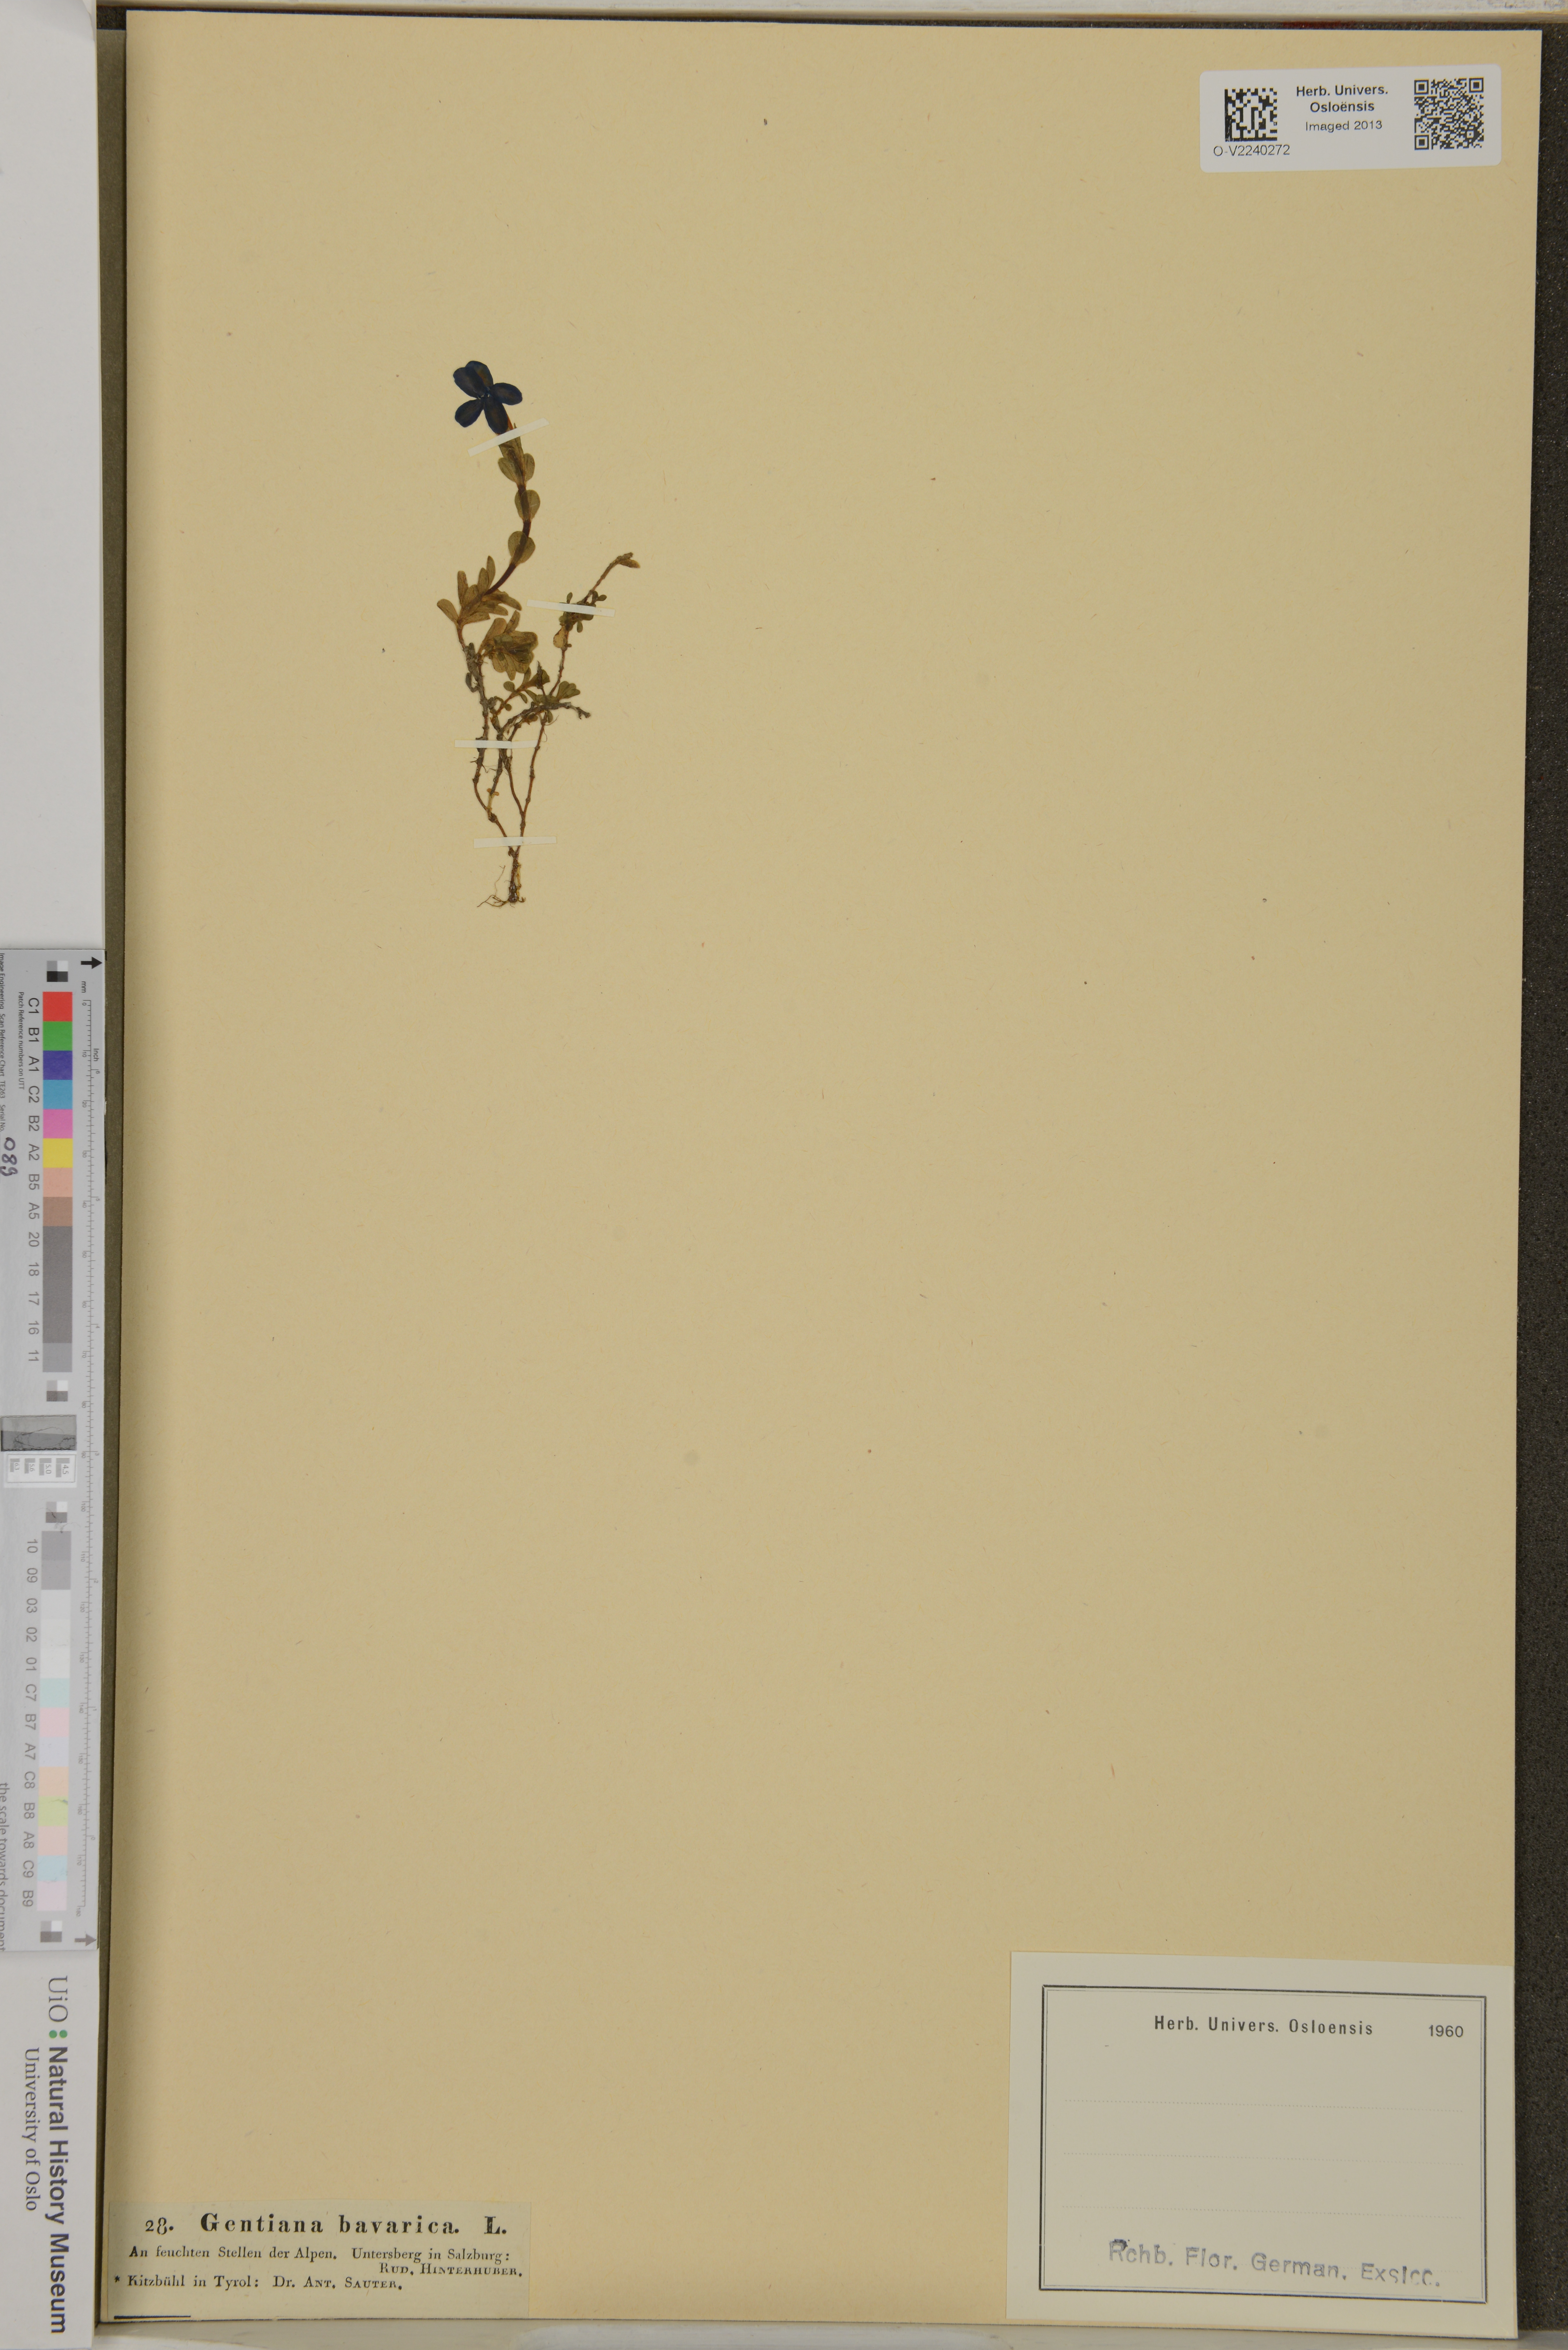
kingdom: Plantae
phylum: Tracheophyta
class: Magnoliopsida
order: Gentianales
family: Gentianaceae
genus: Gentiana
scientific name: Gentiana bavarica
